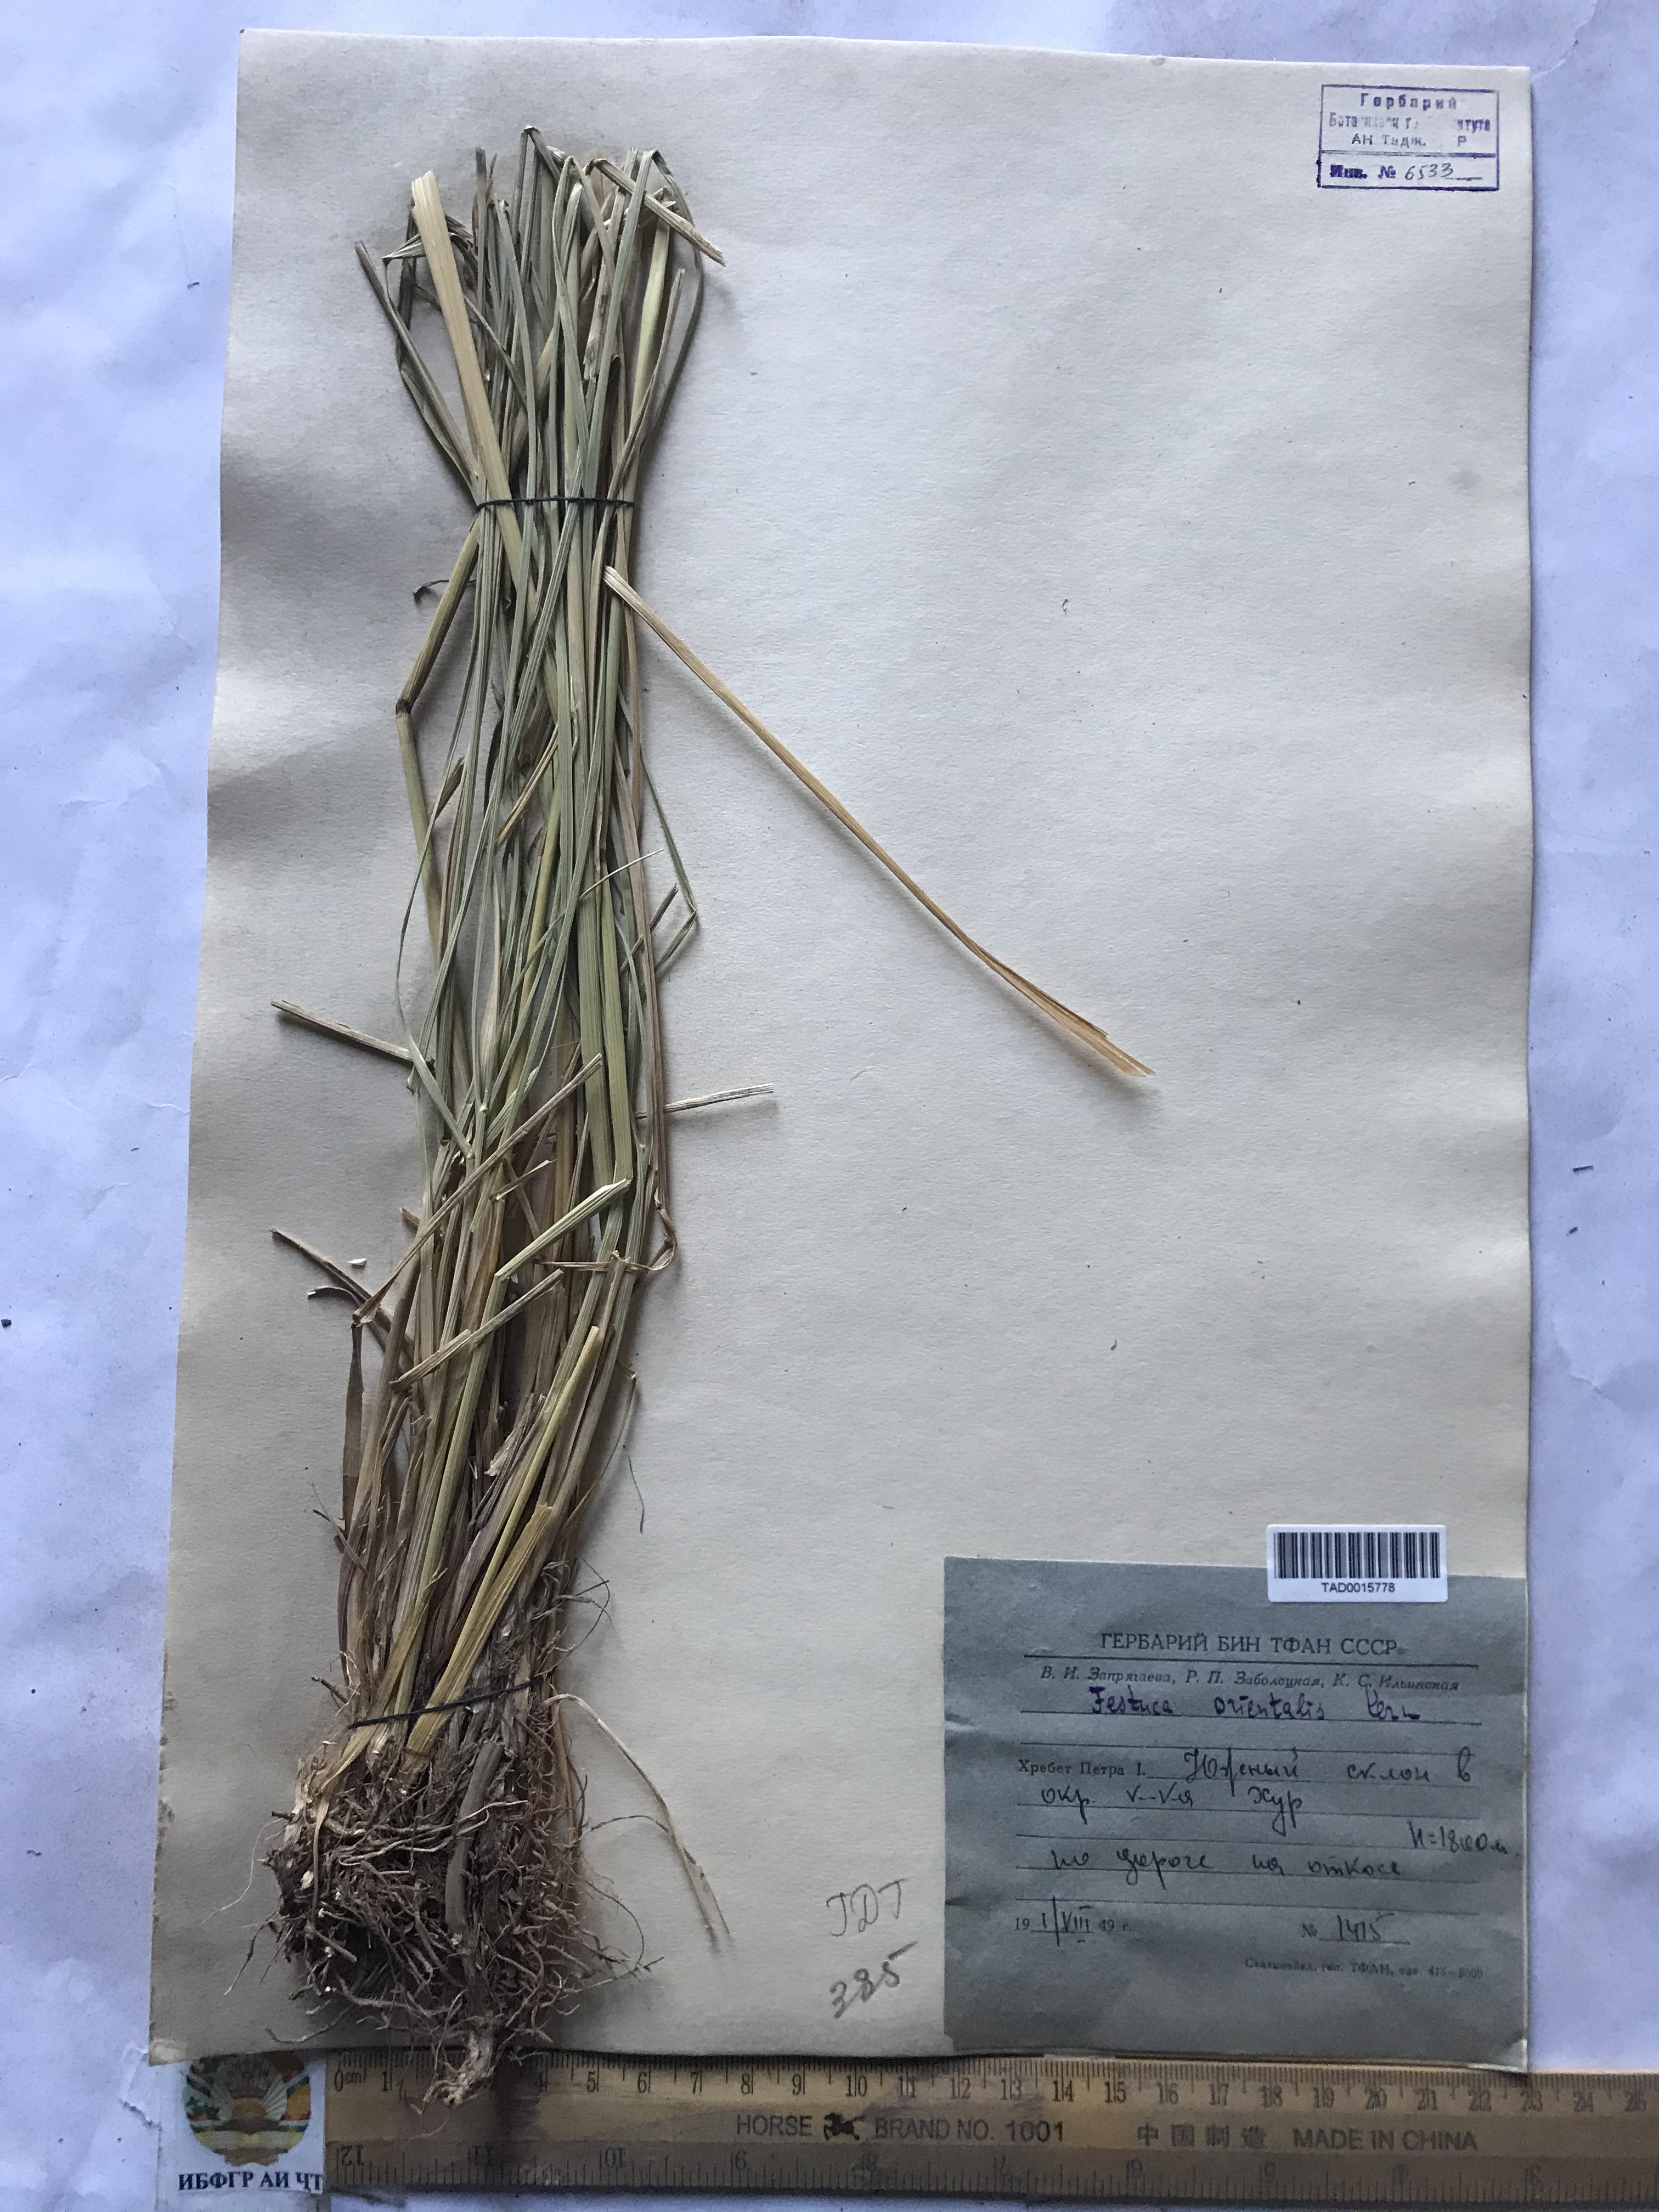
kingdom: Plantae
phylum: Tracheophyta
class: Liliopsida
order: Poales
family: Poaceae
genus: Lolium
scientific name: Lolium arundinaceum
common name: Reed fescue
